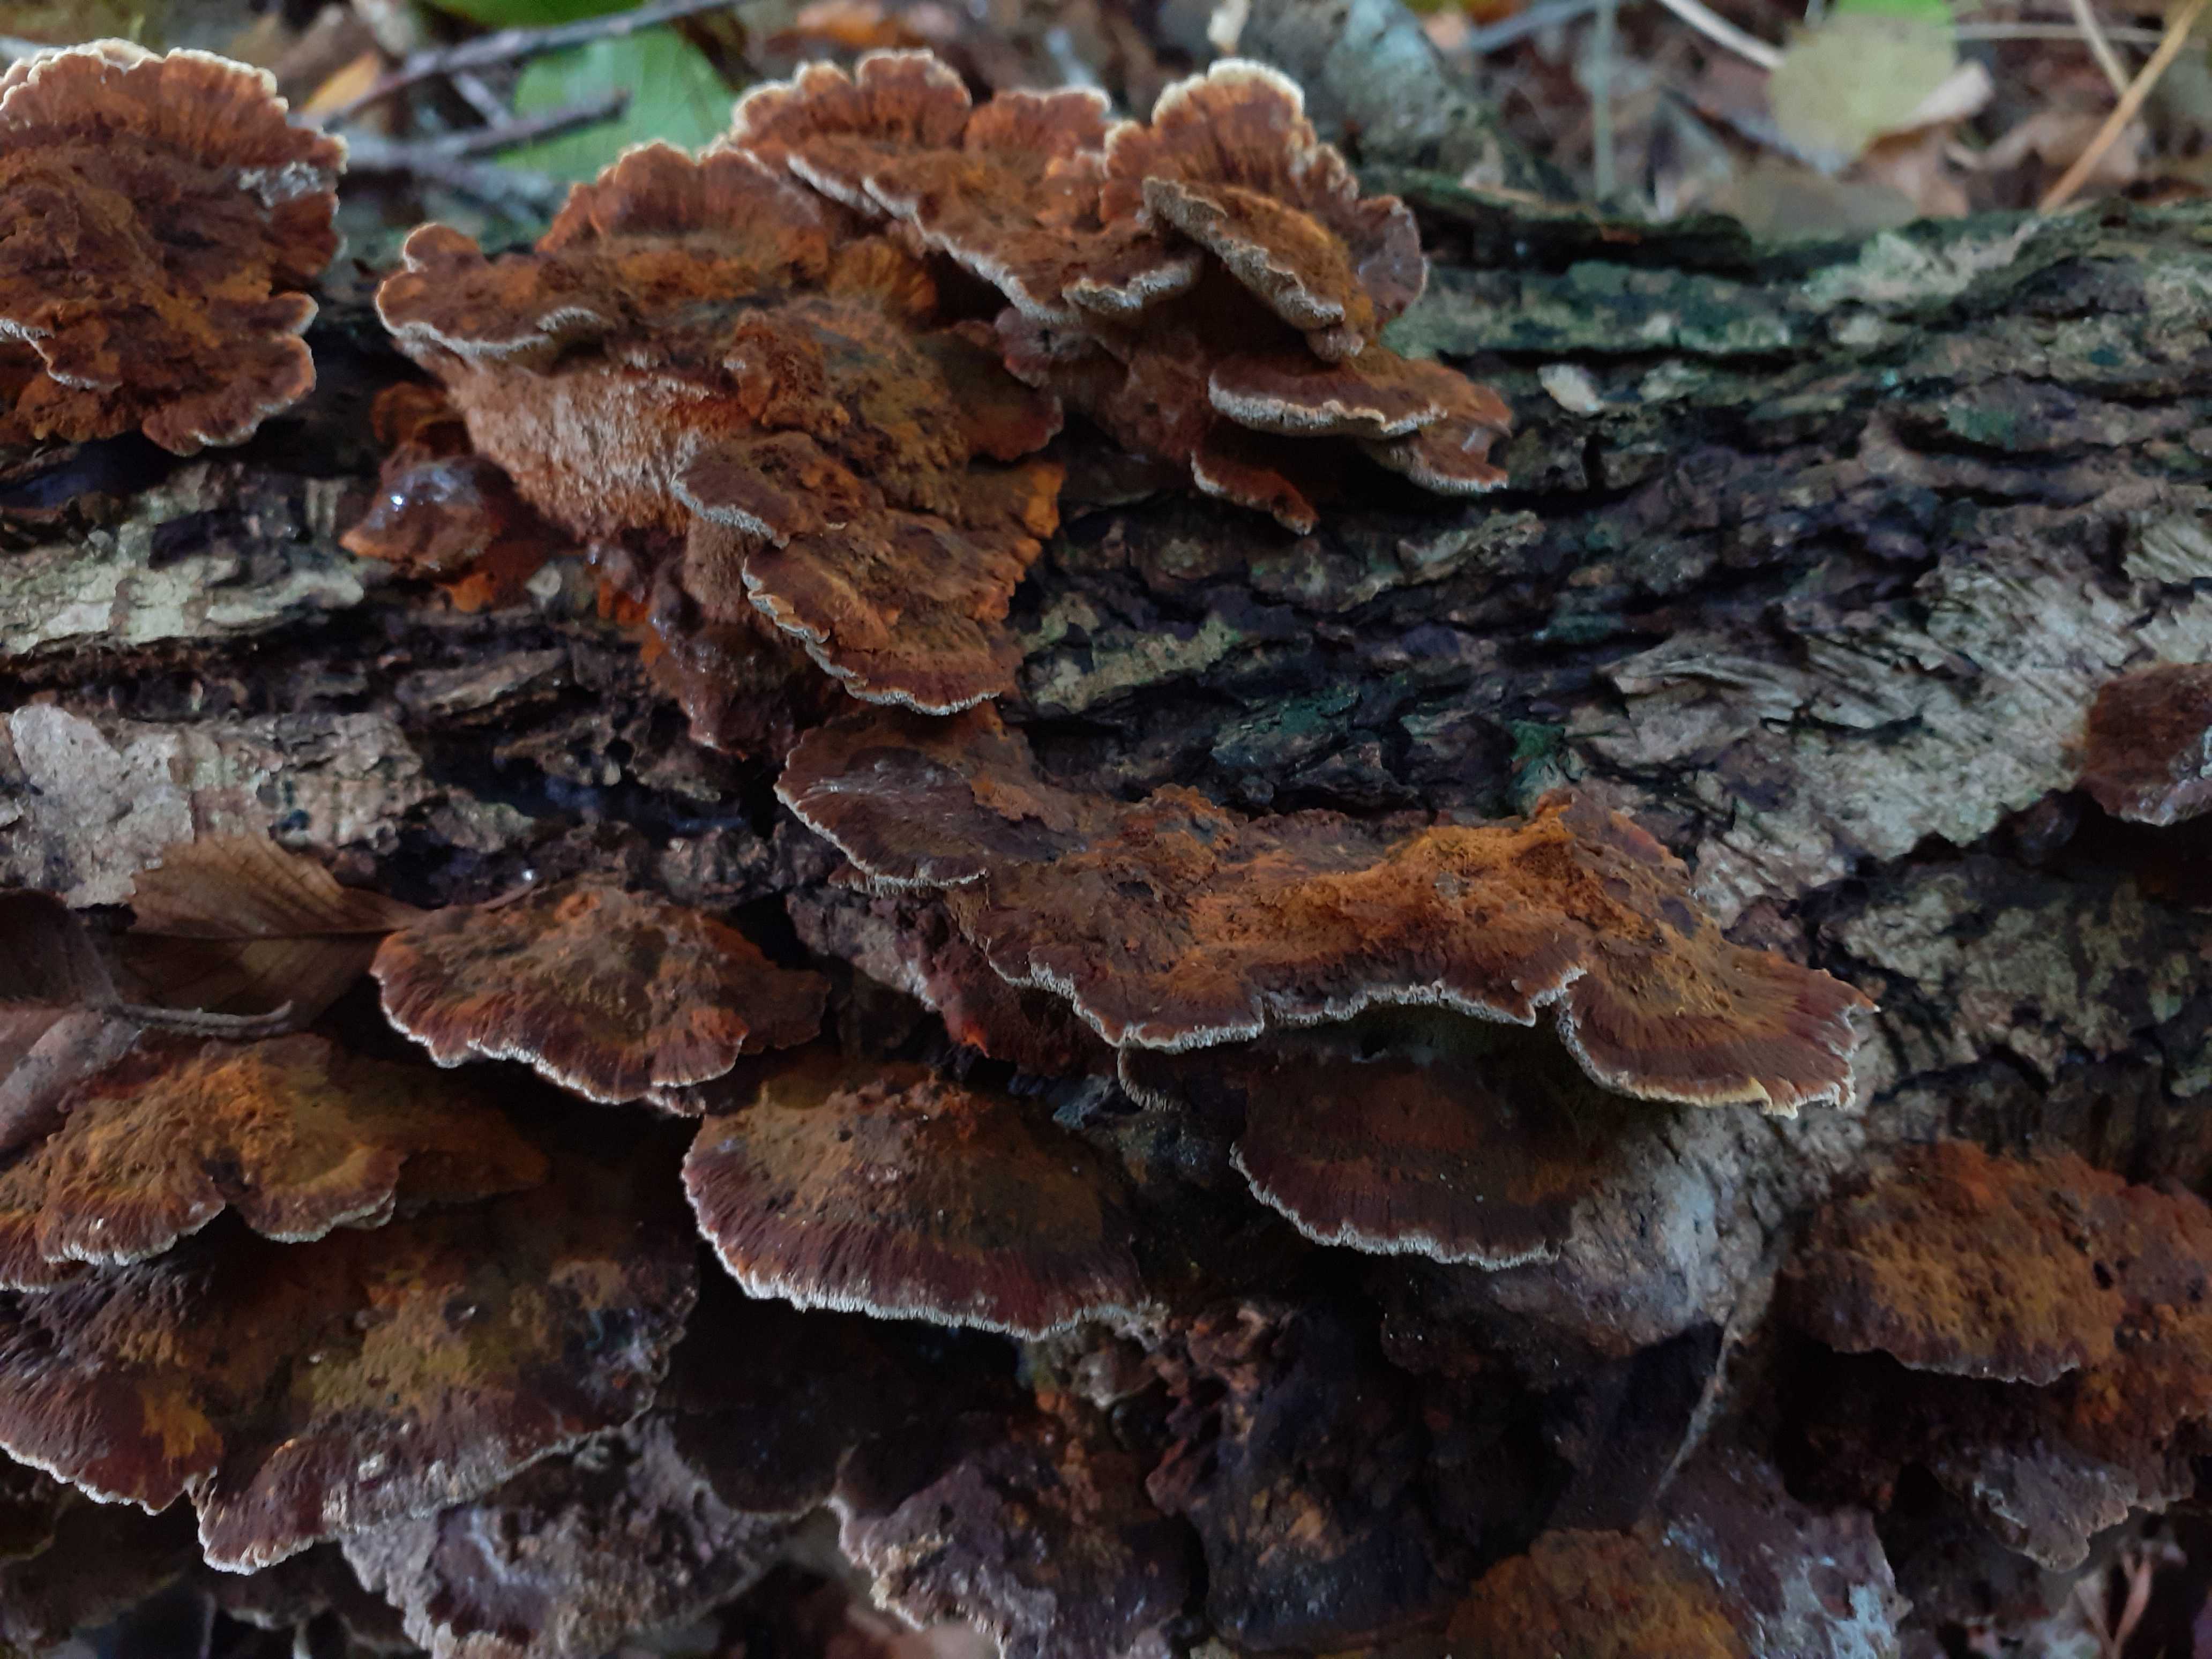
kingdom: Fungi
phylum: Basidiomycota
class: Agaricomycetes
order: Hymenochaetales
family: Hymenochaetaceae
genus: Xanthoporia
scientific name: Xanthoporia radiata
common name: elle-spejlporesvamp
